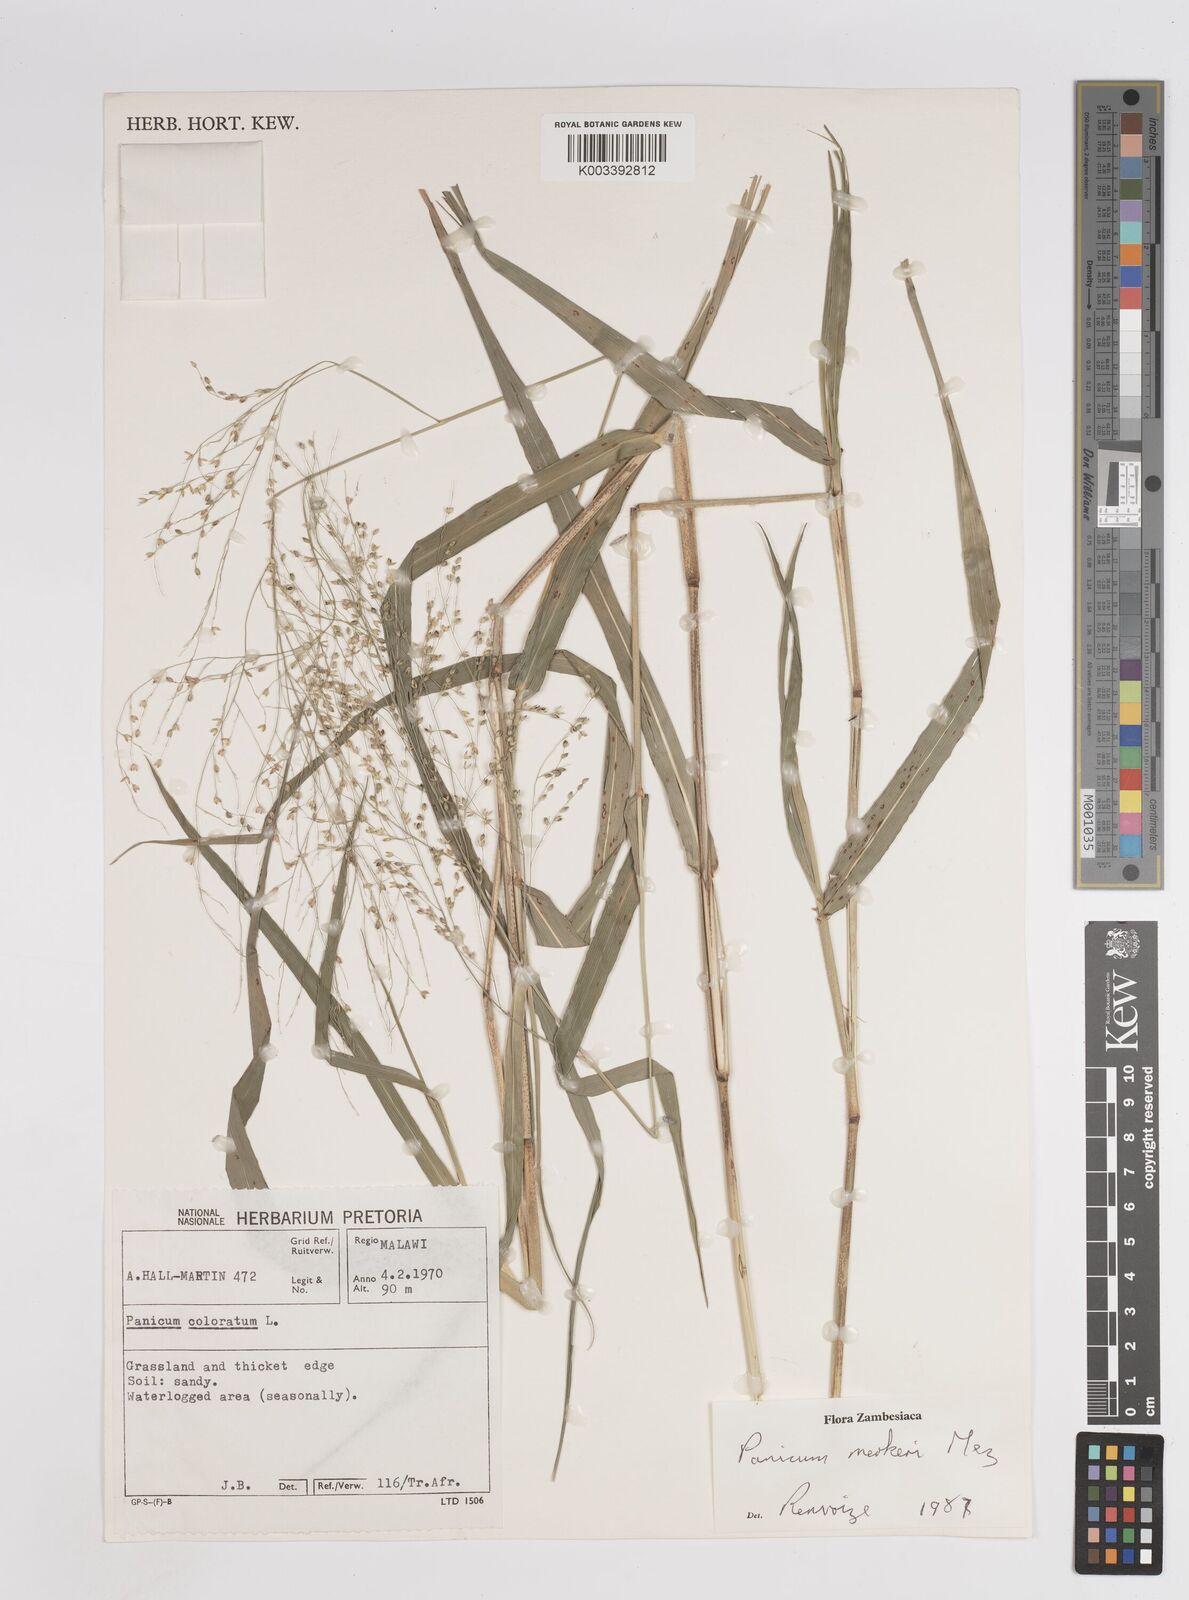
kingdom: Plantae
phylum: Tracheophyta
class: Liliopsida
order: Poales
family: Poaceae
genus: Panicum
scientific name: Panicum merkeri
